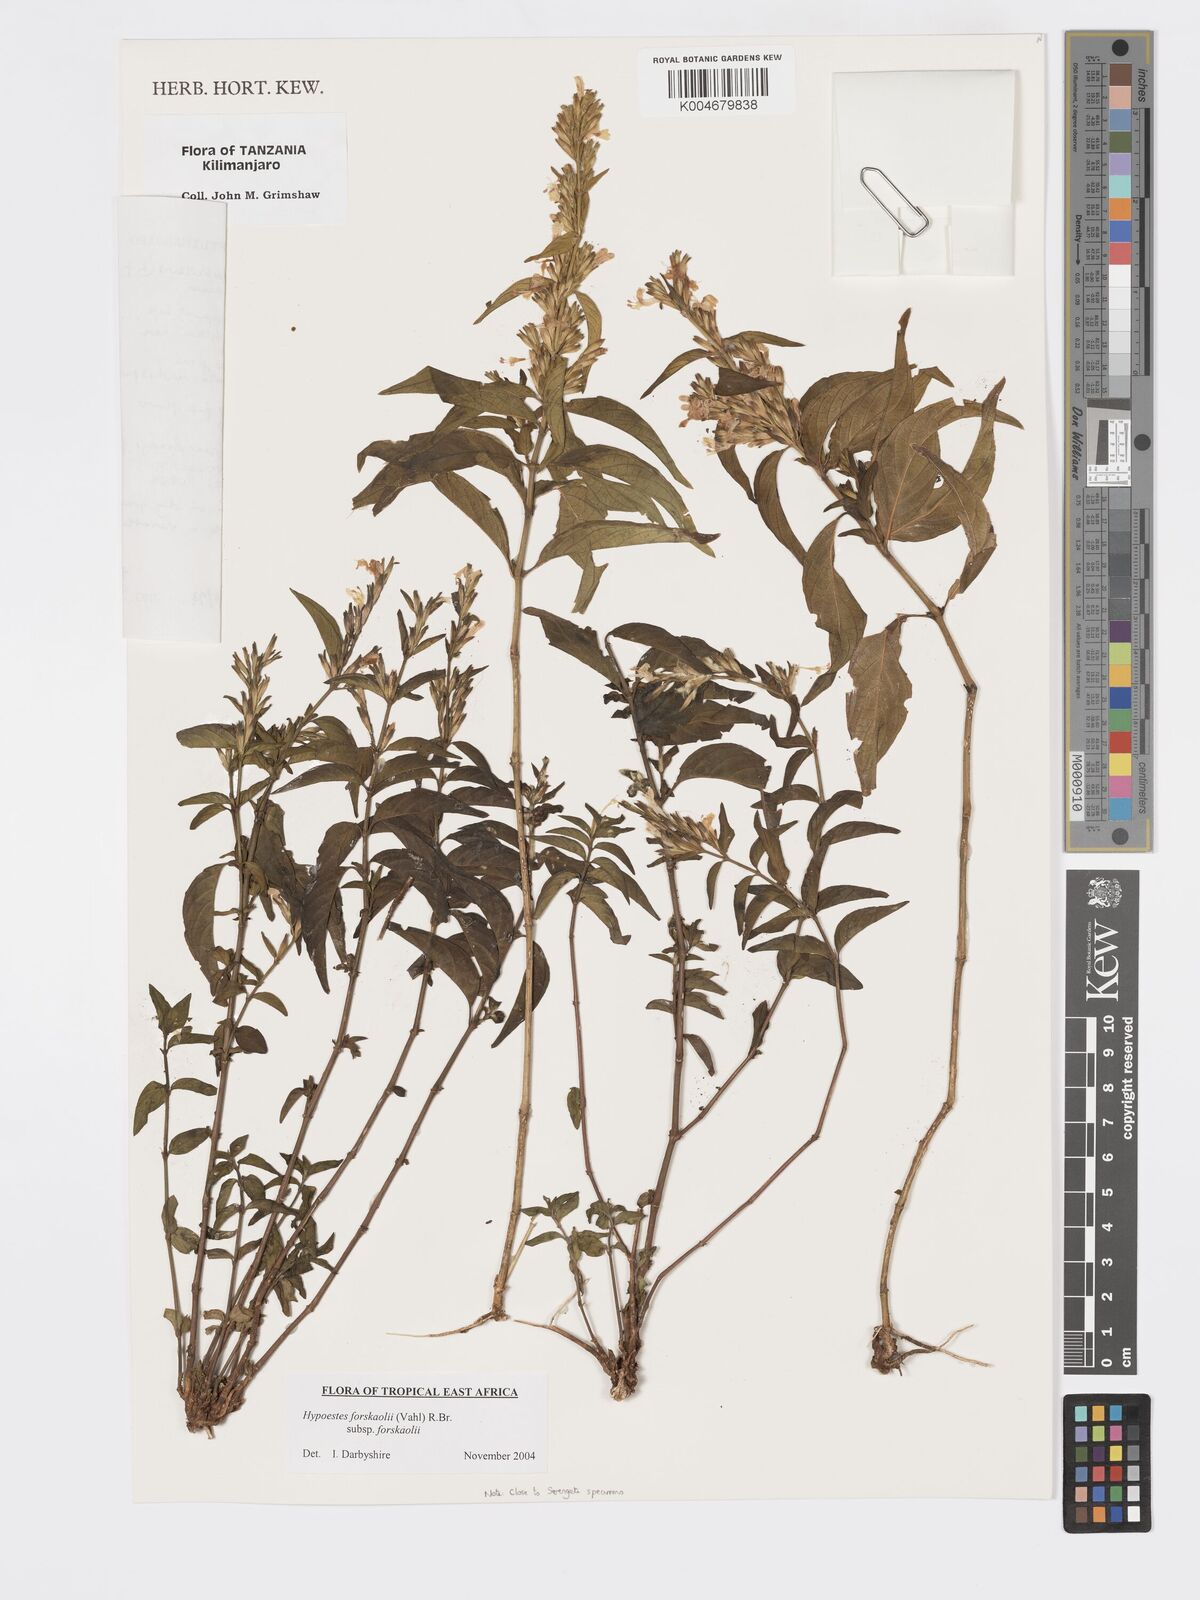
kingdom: Plantae
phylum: Tracheophyta
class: Magnoliopsida
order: Lamiales
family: Acanthaceae
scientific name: Acanthaceae
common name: Acanthaceae
